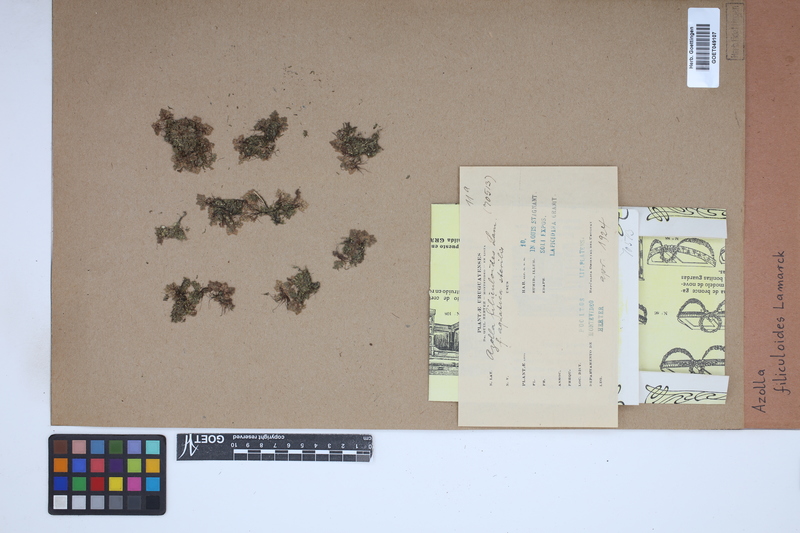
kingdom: Plantae
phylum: Tracheophyta
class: Polypodiopsida
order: Salviniales
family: Salviniaceae
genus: Azolla
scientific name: Azolla filiculoides
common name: Water fern
